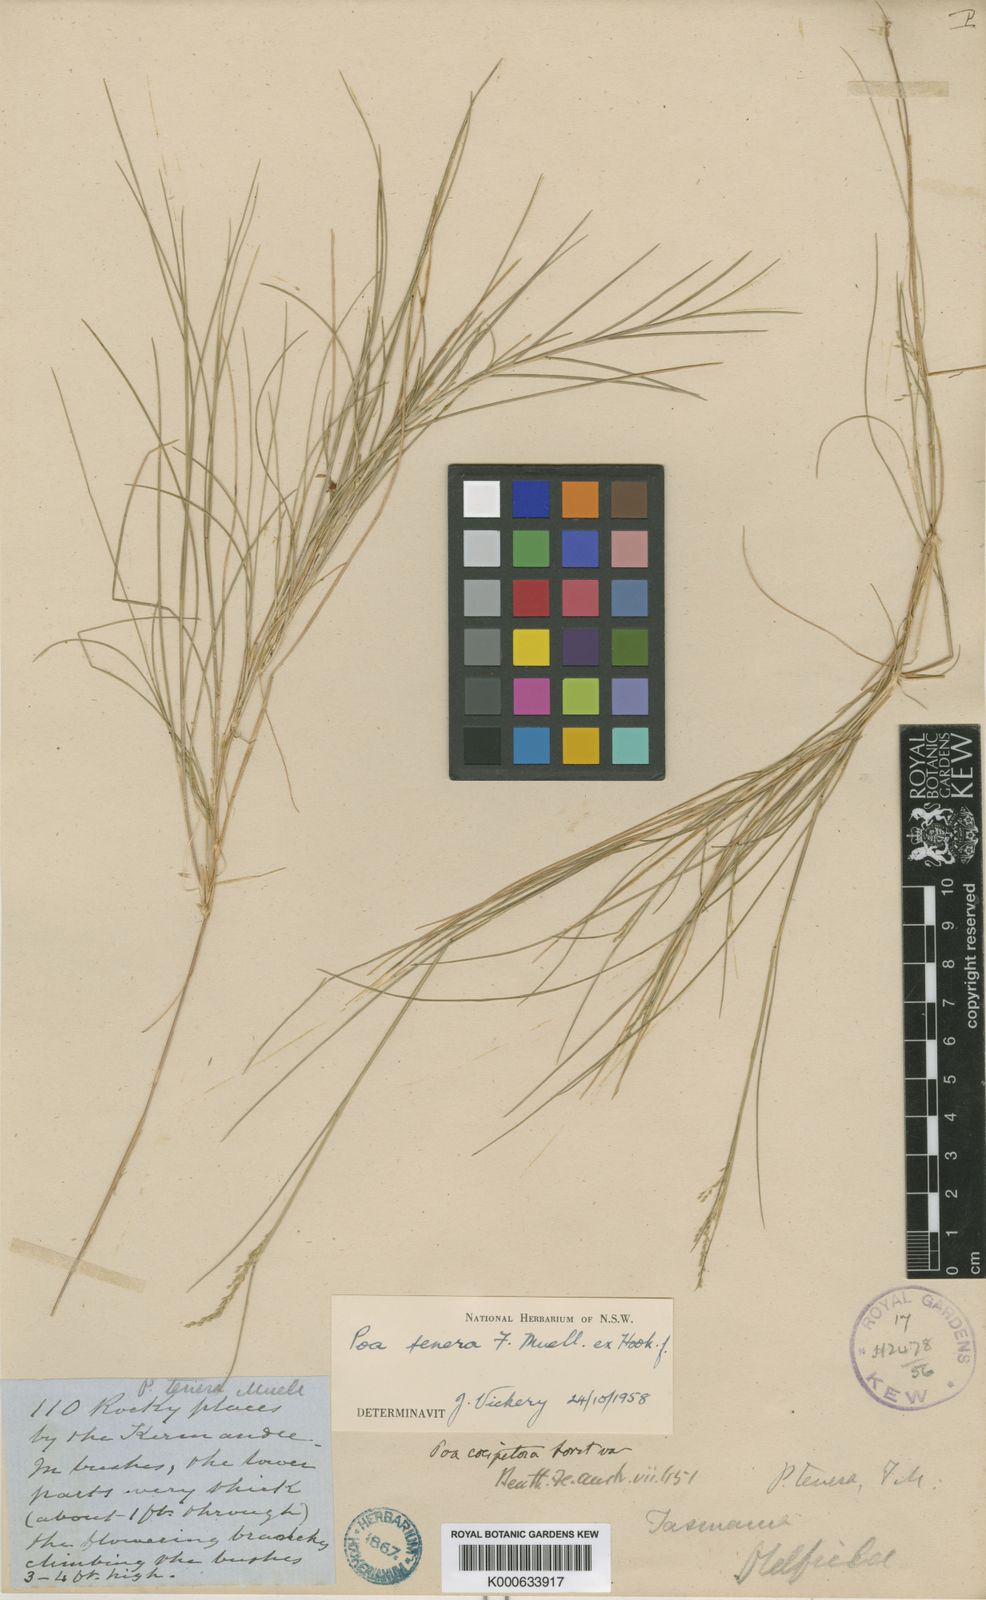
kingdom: Plantae
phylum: Tracheophyta
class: Liliopsida
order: Poales
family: Poaceae
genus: Poa
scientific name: Poa tenera
